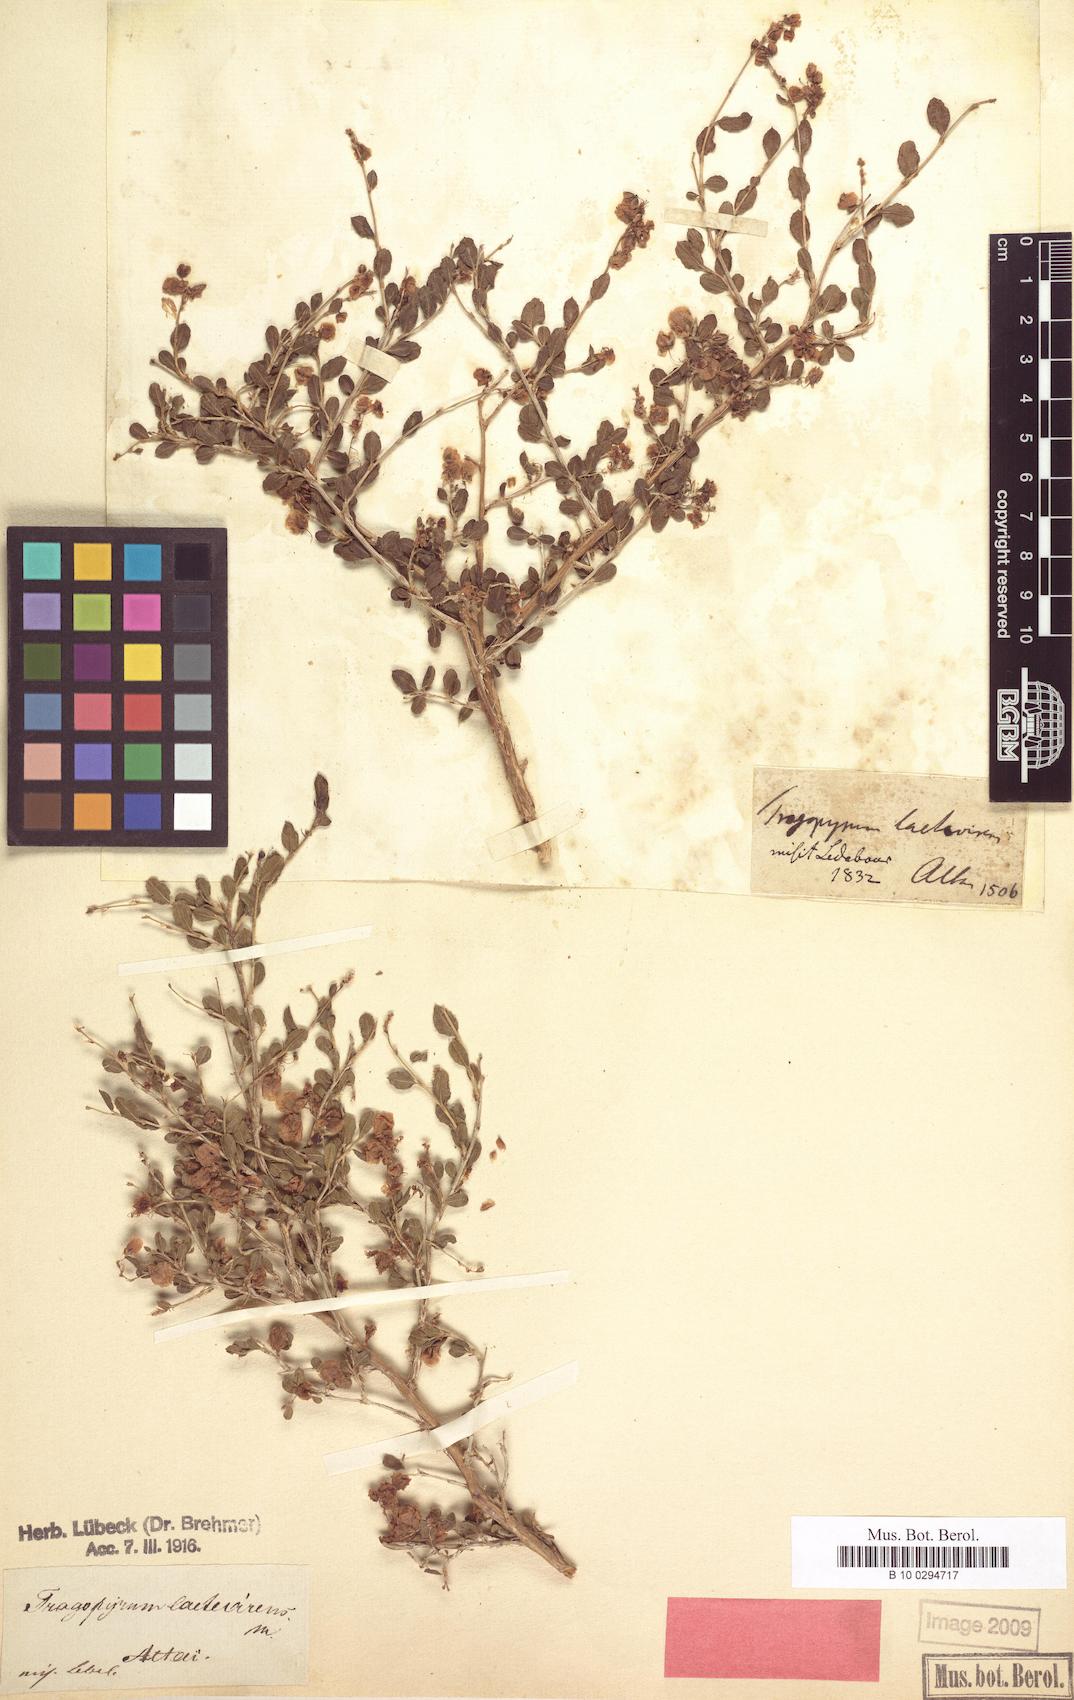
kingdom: Plantae
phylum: Tracheophyta
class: Magnoliopsida
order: Caryophyllales
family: Polygonaceae
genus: Atraphaxis
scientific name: Atraphaxis laetevirens
